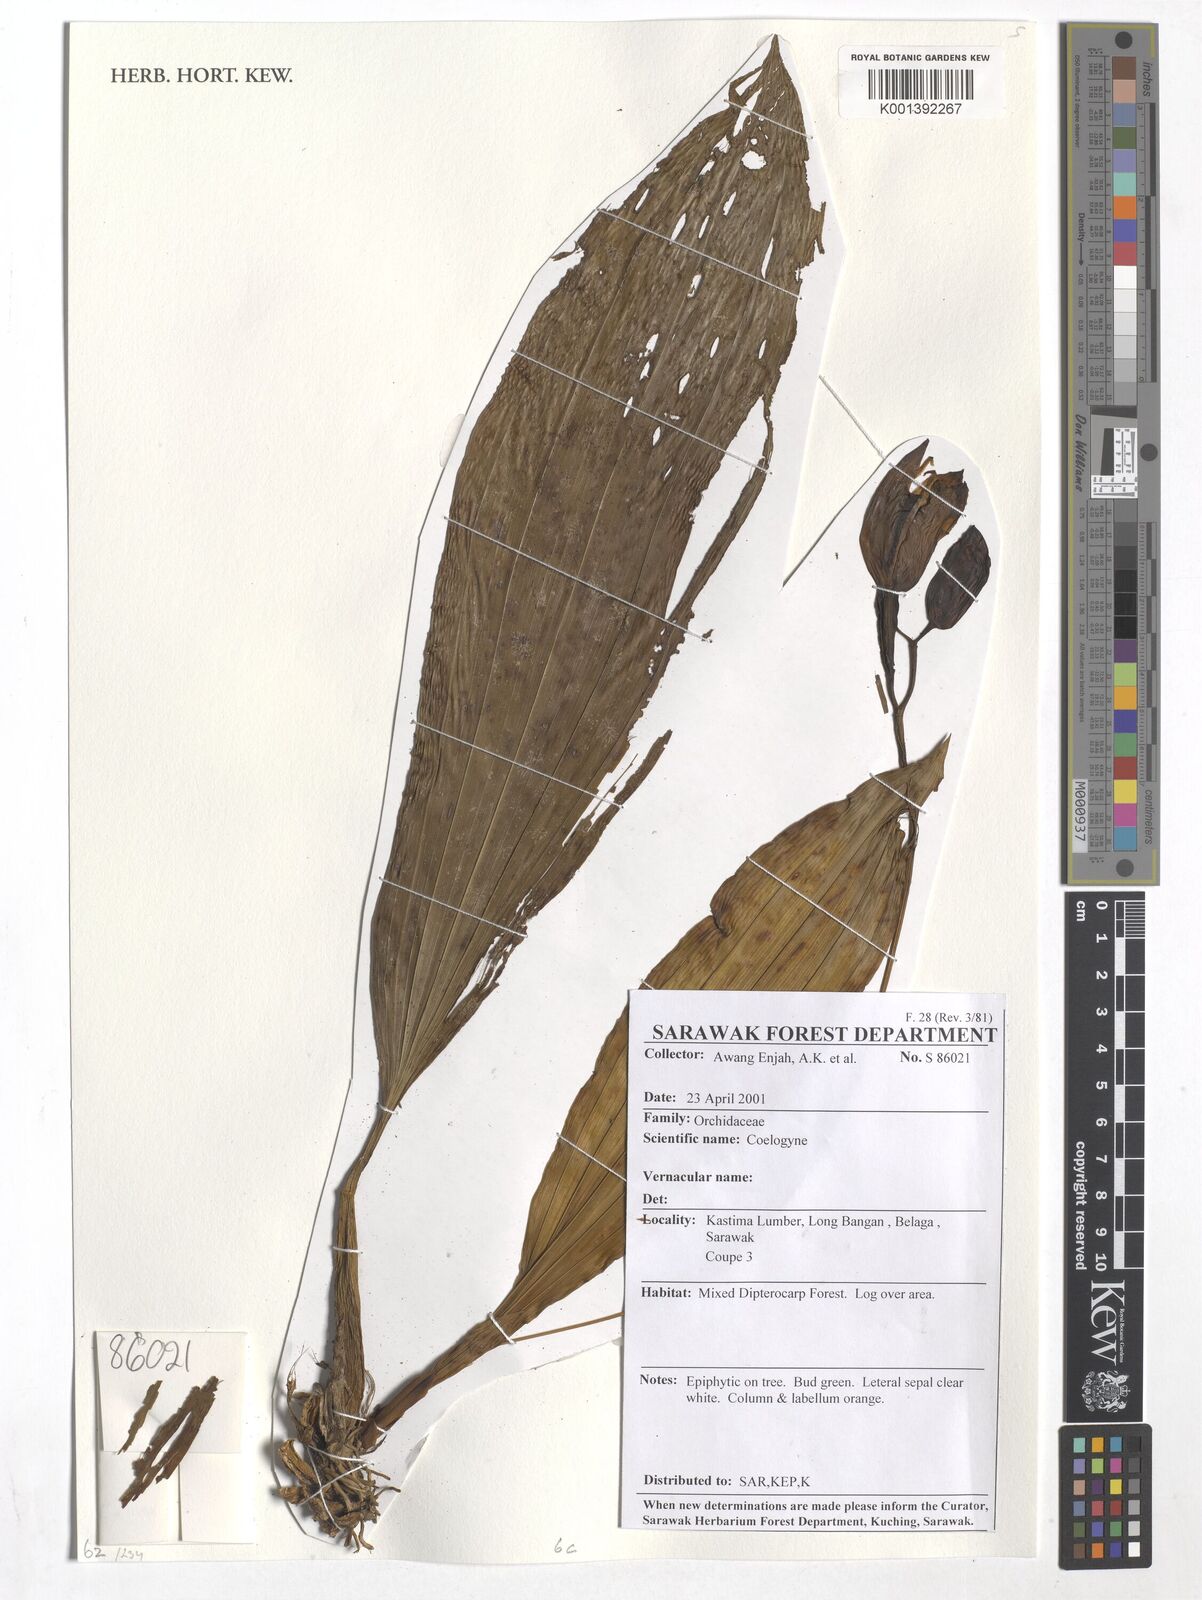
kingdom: Plantae
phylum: Tracheophyta
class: Liliopsida
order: Asparagales
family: Orchidaceae
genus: Coelogyne
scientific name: Coelogyne
